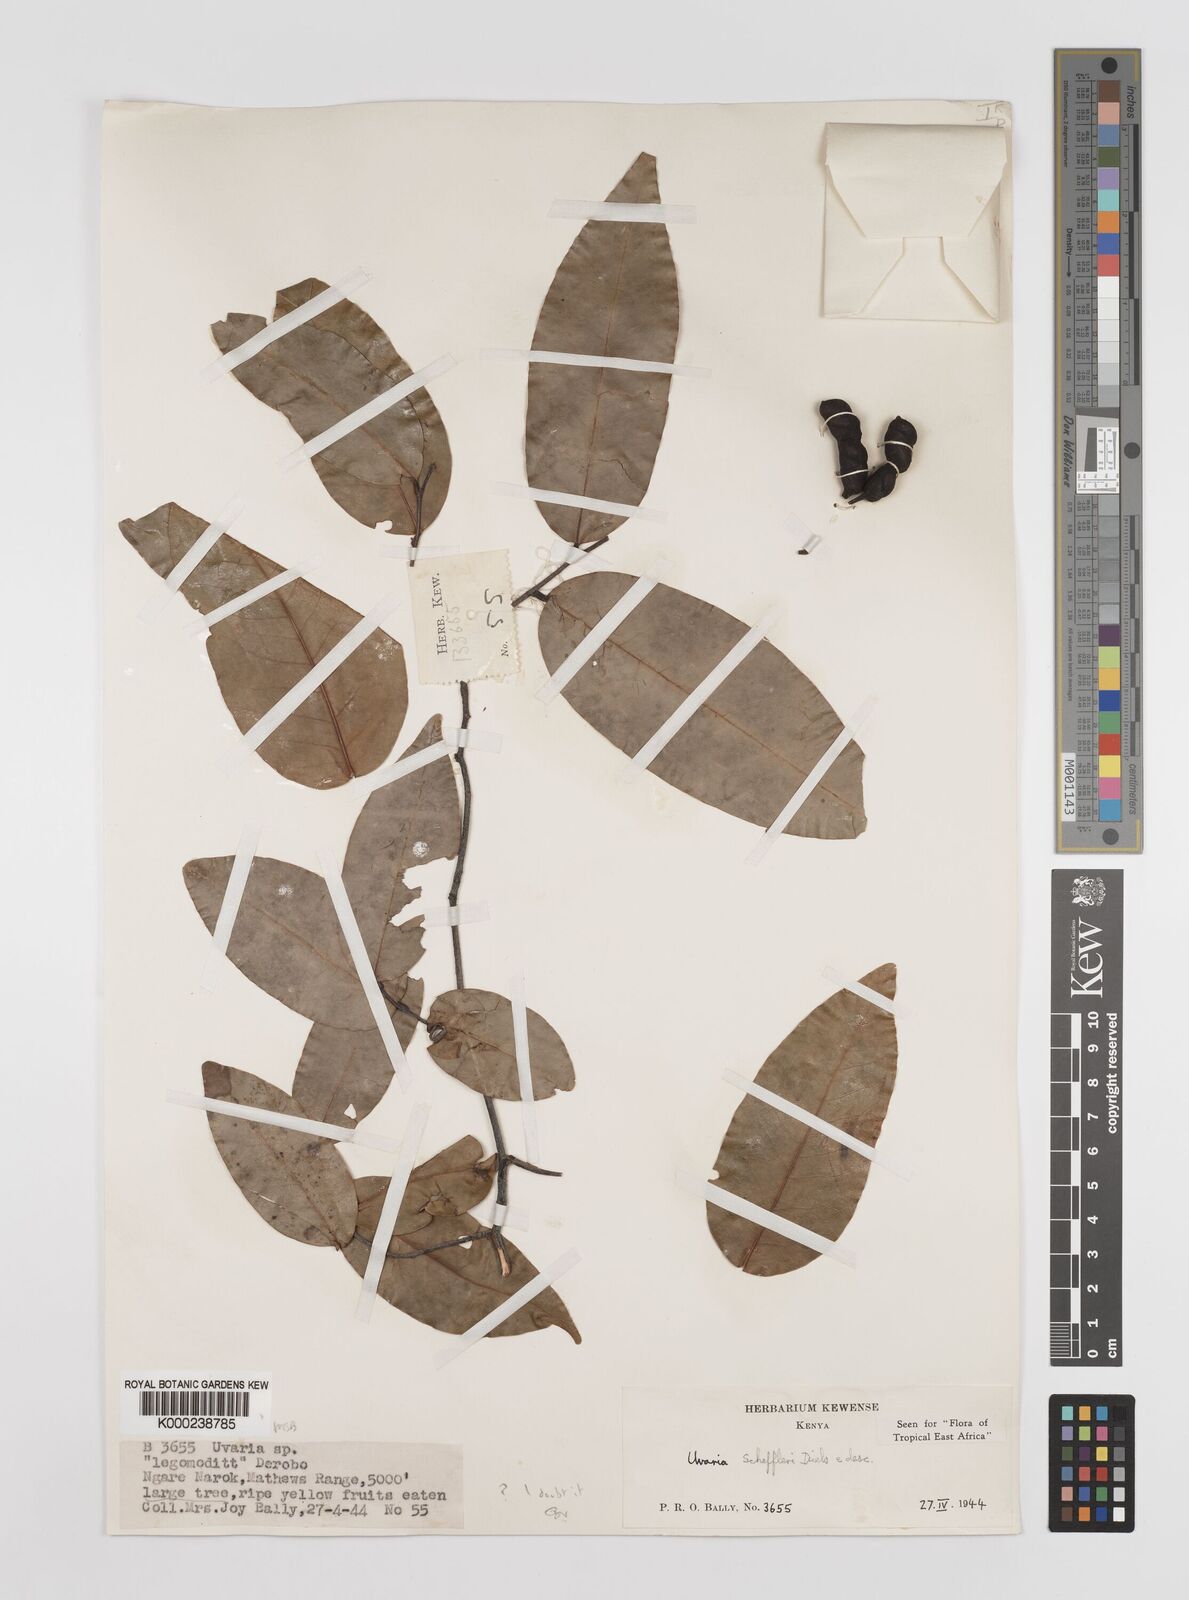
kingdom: Plantae
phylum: Tracheophyta
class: Magnoliopsida
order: Magnoliales
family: Annonaceae
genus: Uvaria
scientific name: Uvaria scheffleri
